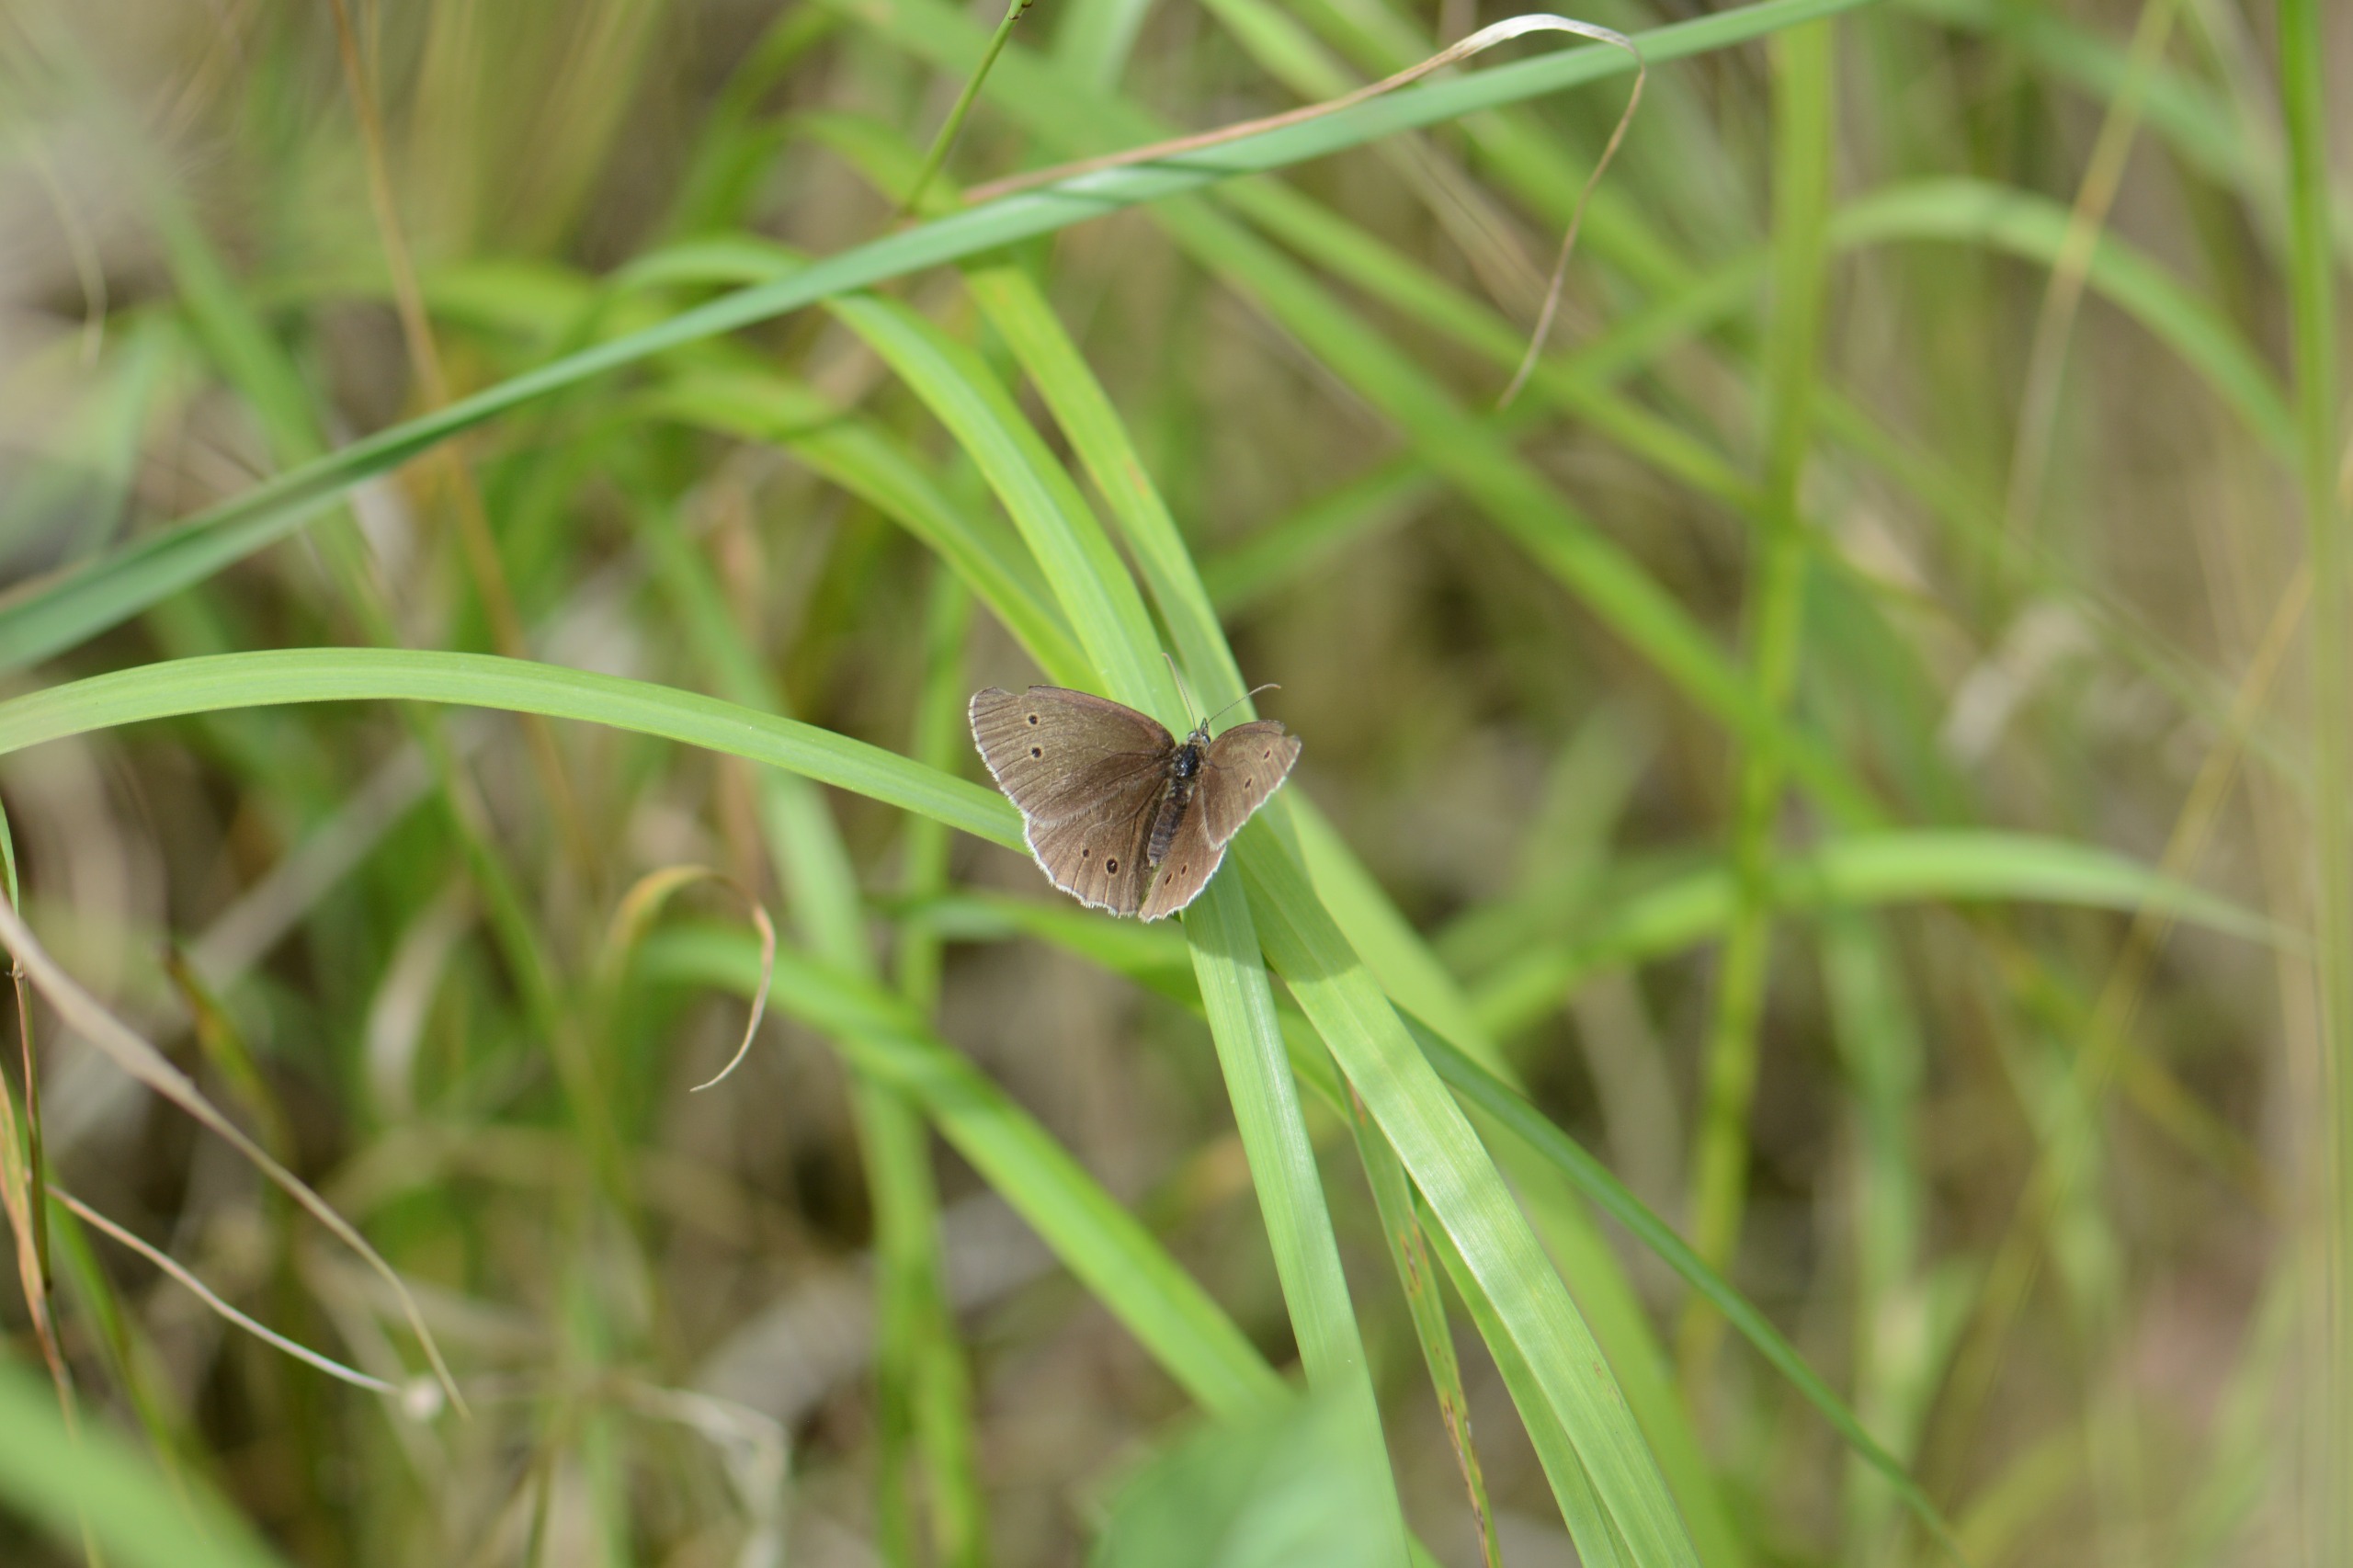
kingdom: Animalia
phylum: Arthropoda
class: Insecta
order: Lepidoptera
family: Nymphalidae
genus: Aphantopus
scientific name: Aphantopus hyperantus
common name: Engrandøje
